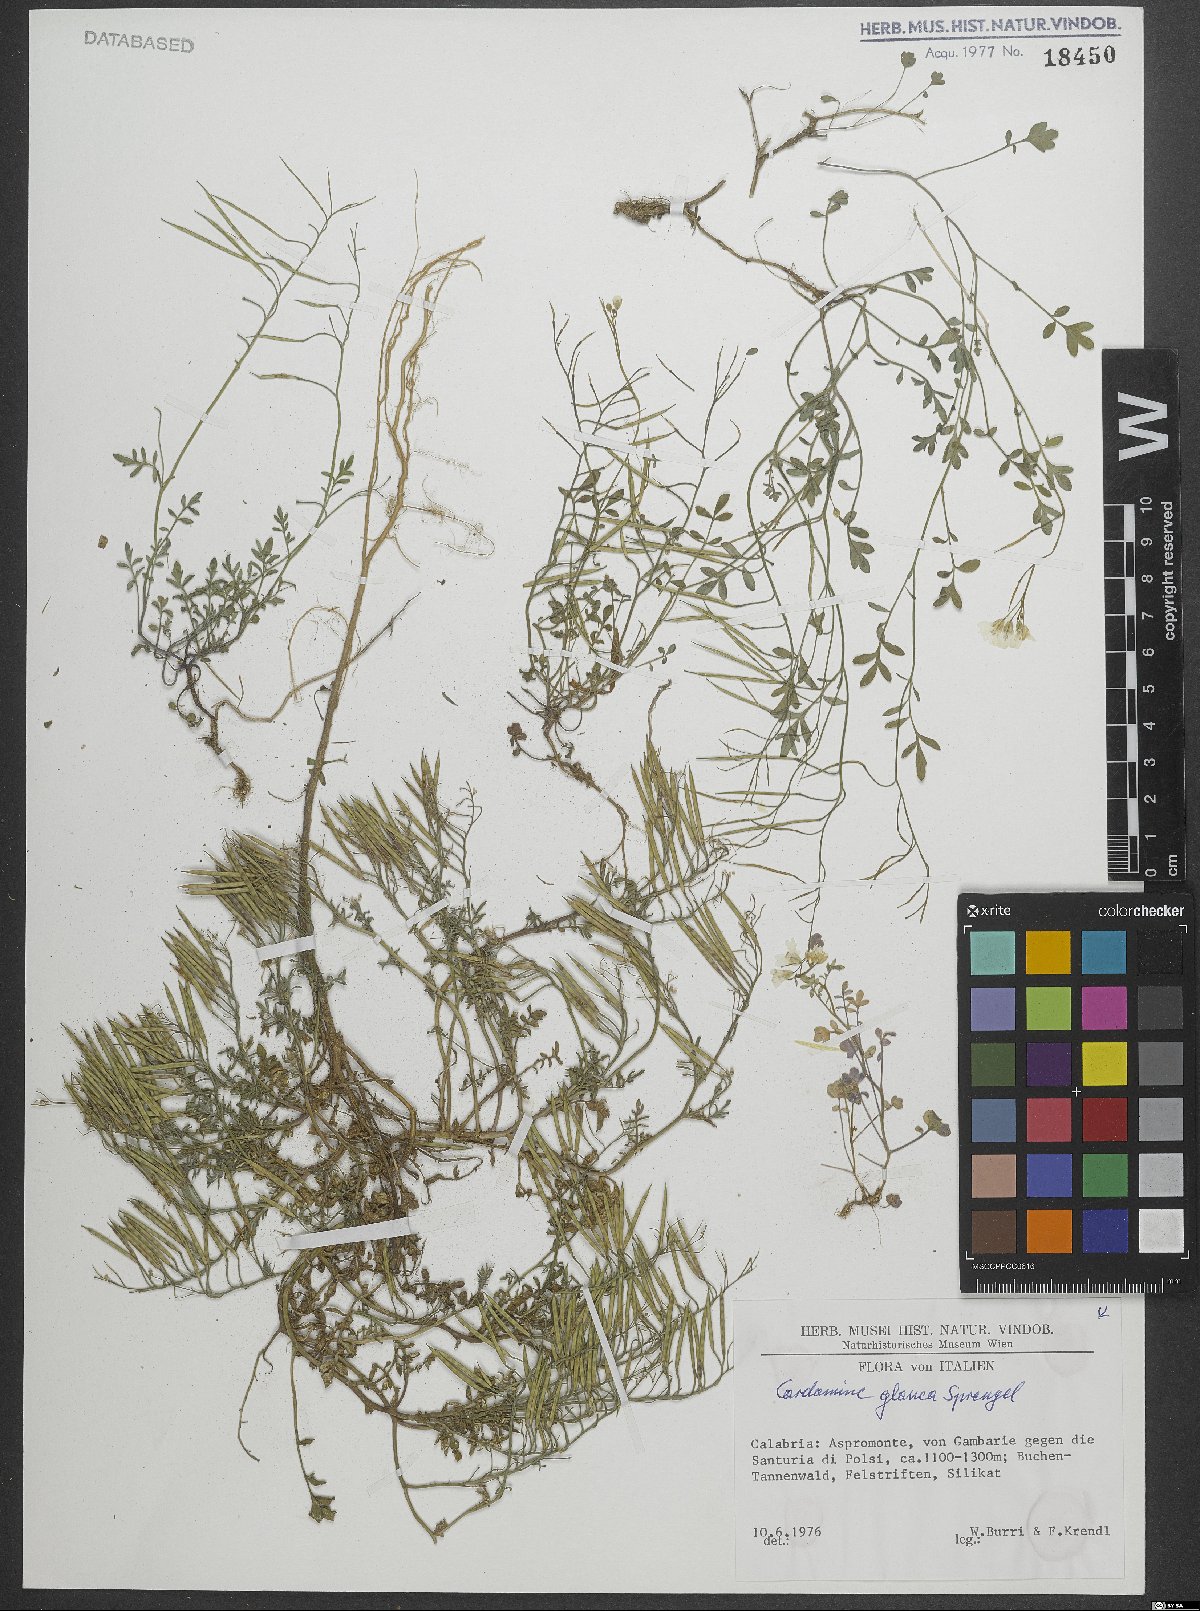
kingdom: Plantae
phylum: Tracheophyta
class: Magnoliopsida
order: Brassicales
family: Brassicaceae
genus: Cardamine
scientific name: Cardamine glauca
